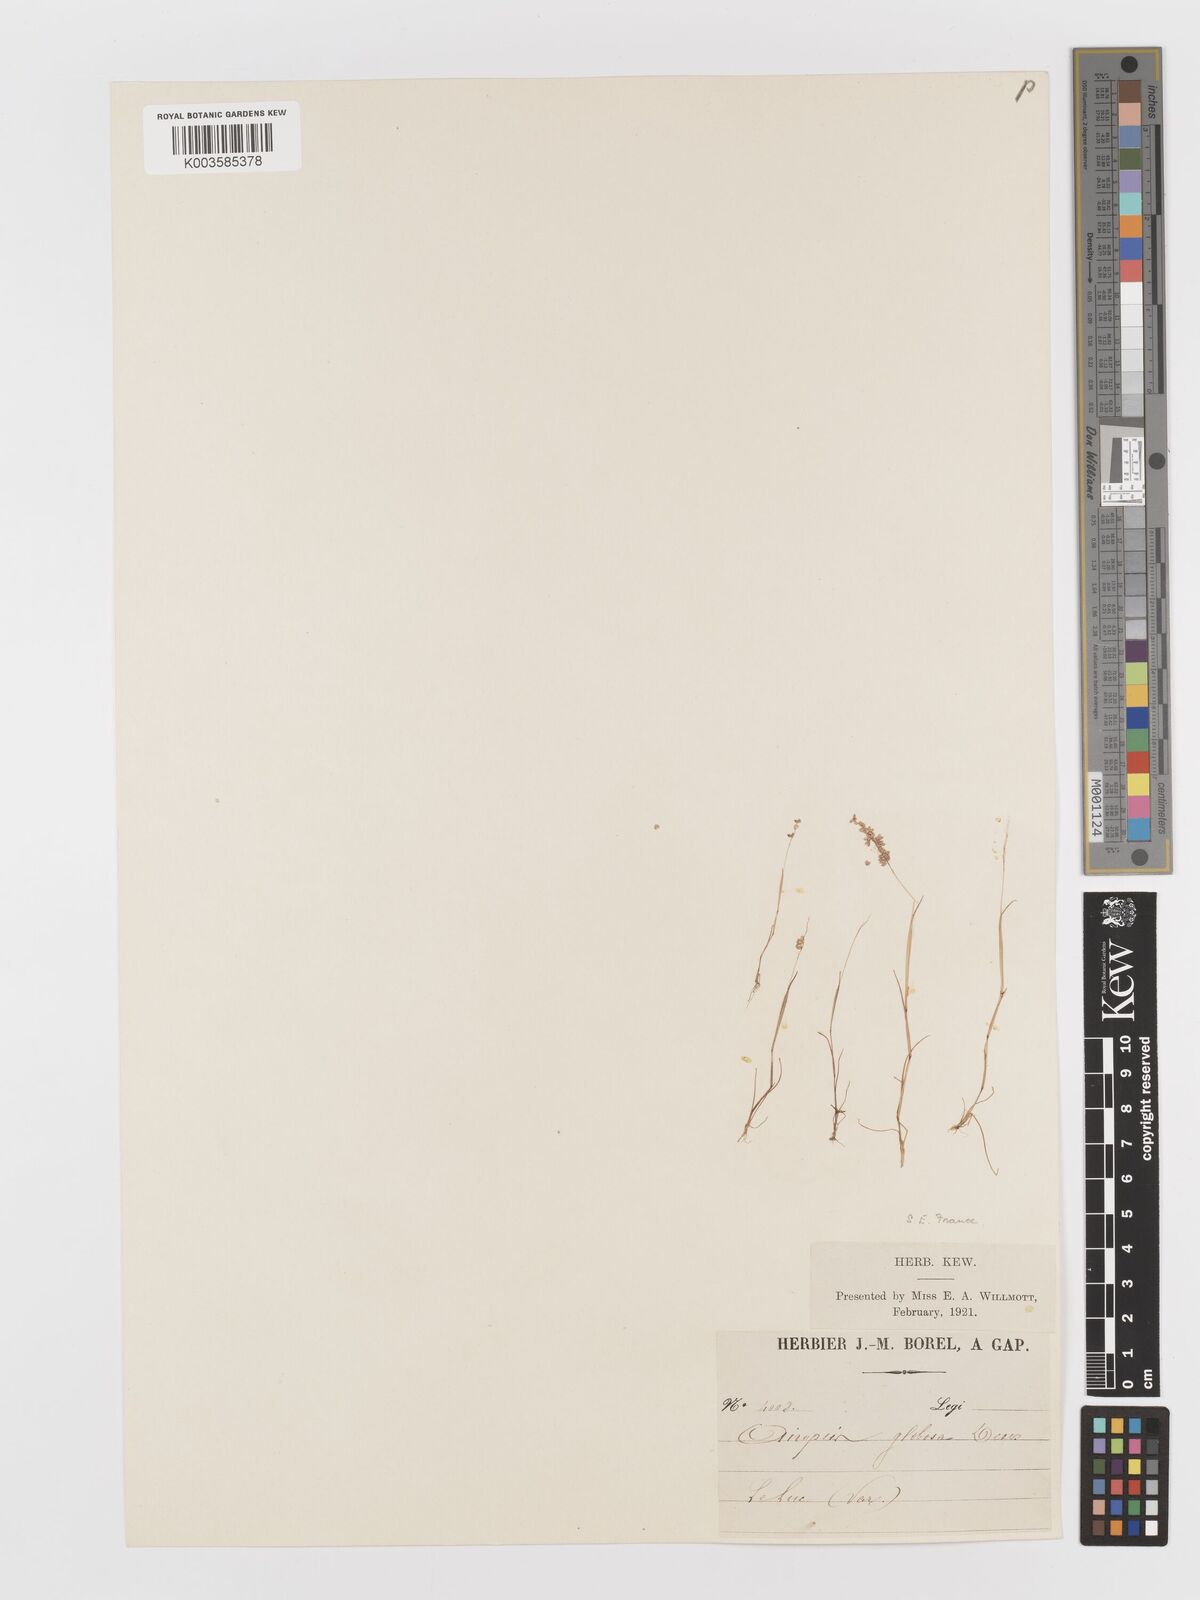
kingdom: Plantae
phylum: Tracheophyta
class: Liliopsida
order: Poales
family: Poaceae
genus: Airopsis
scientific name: Airopsis tenella
